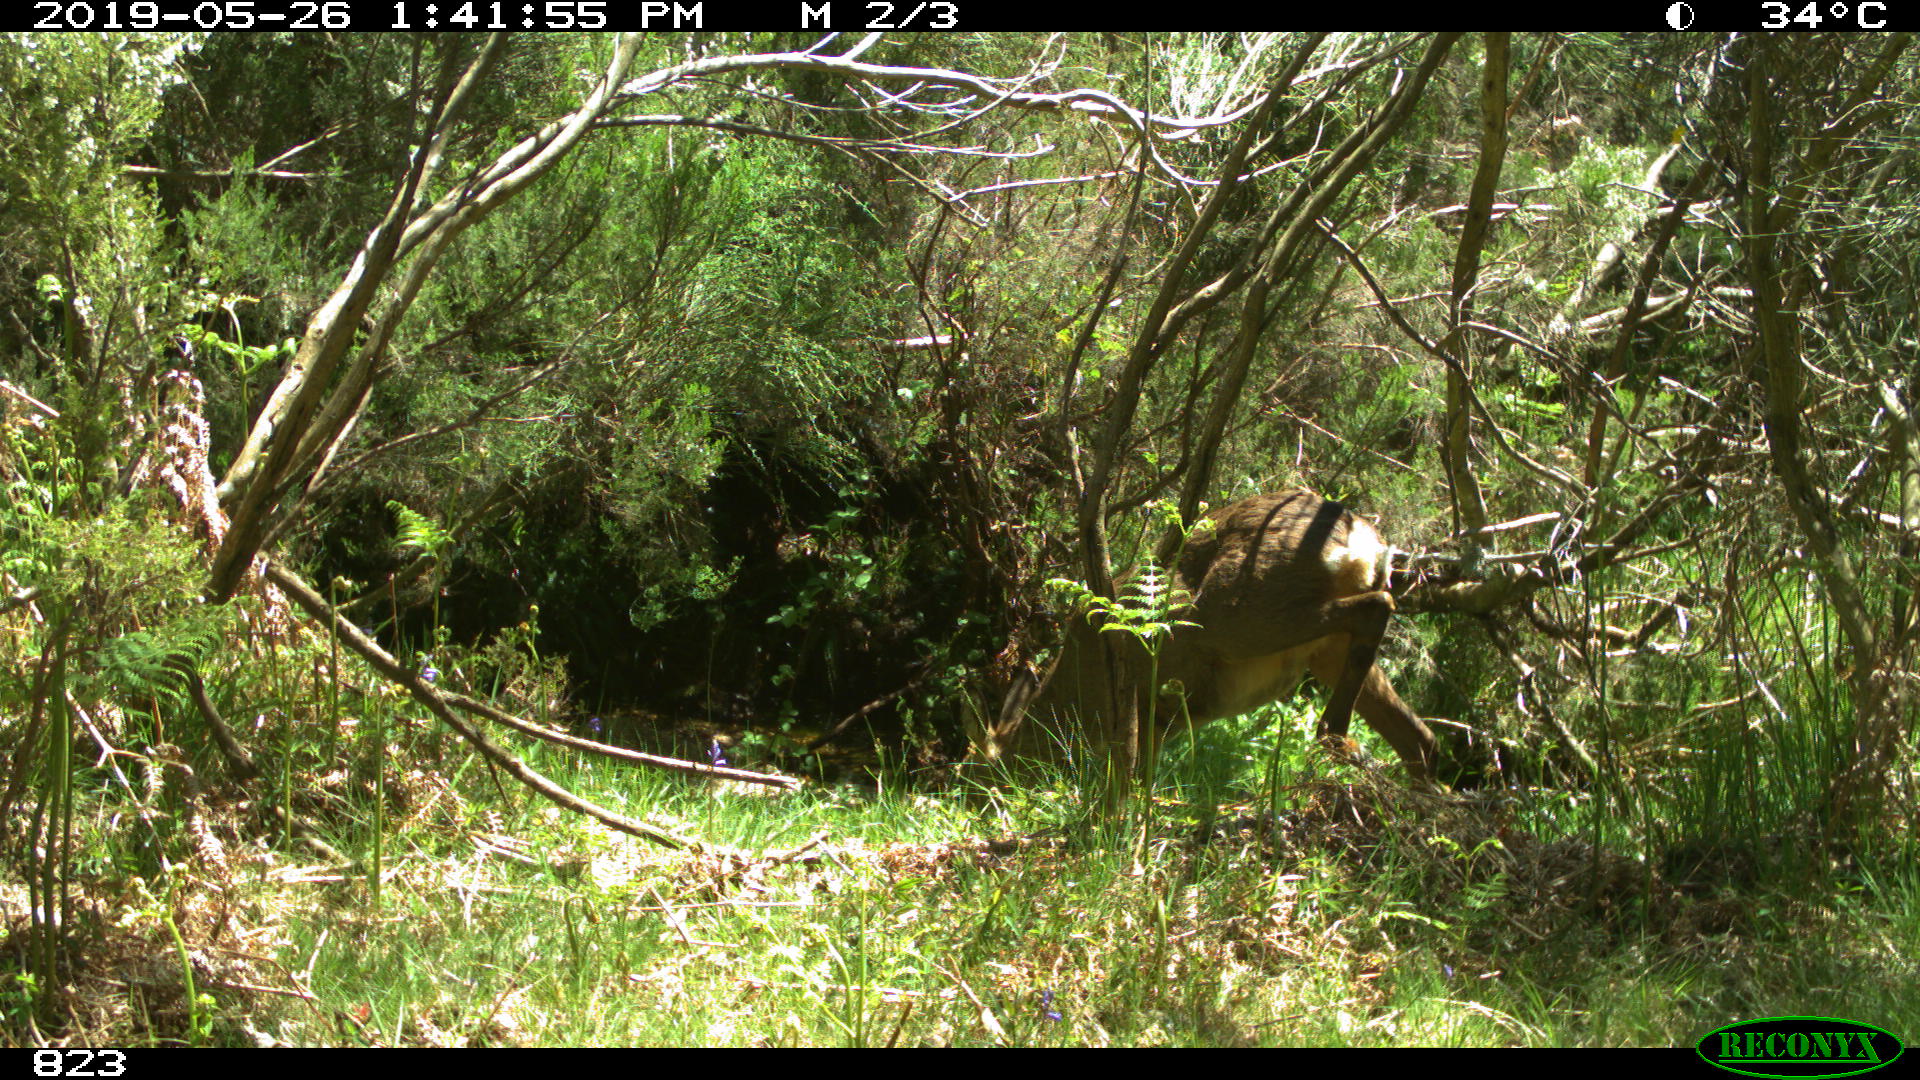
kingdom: Animalia
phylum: Chordata
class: Mammalia
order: Artiodactyla
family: Cervidae
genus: Capreolus
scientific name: Capreolus capreolus
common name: Western roe deer
